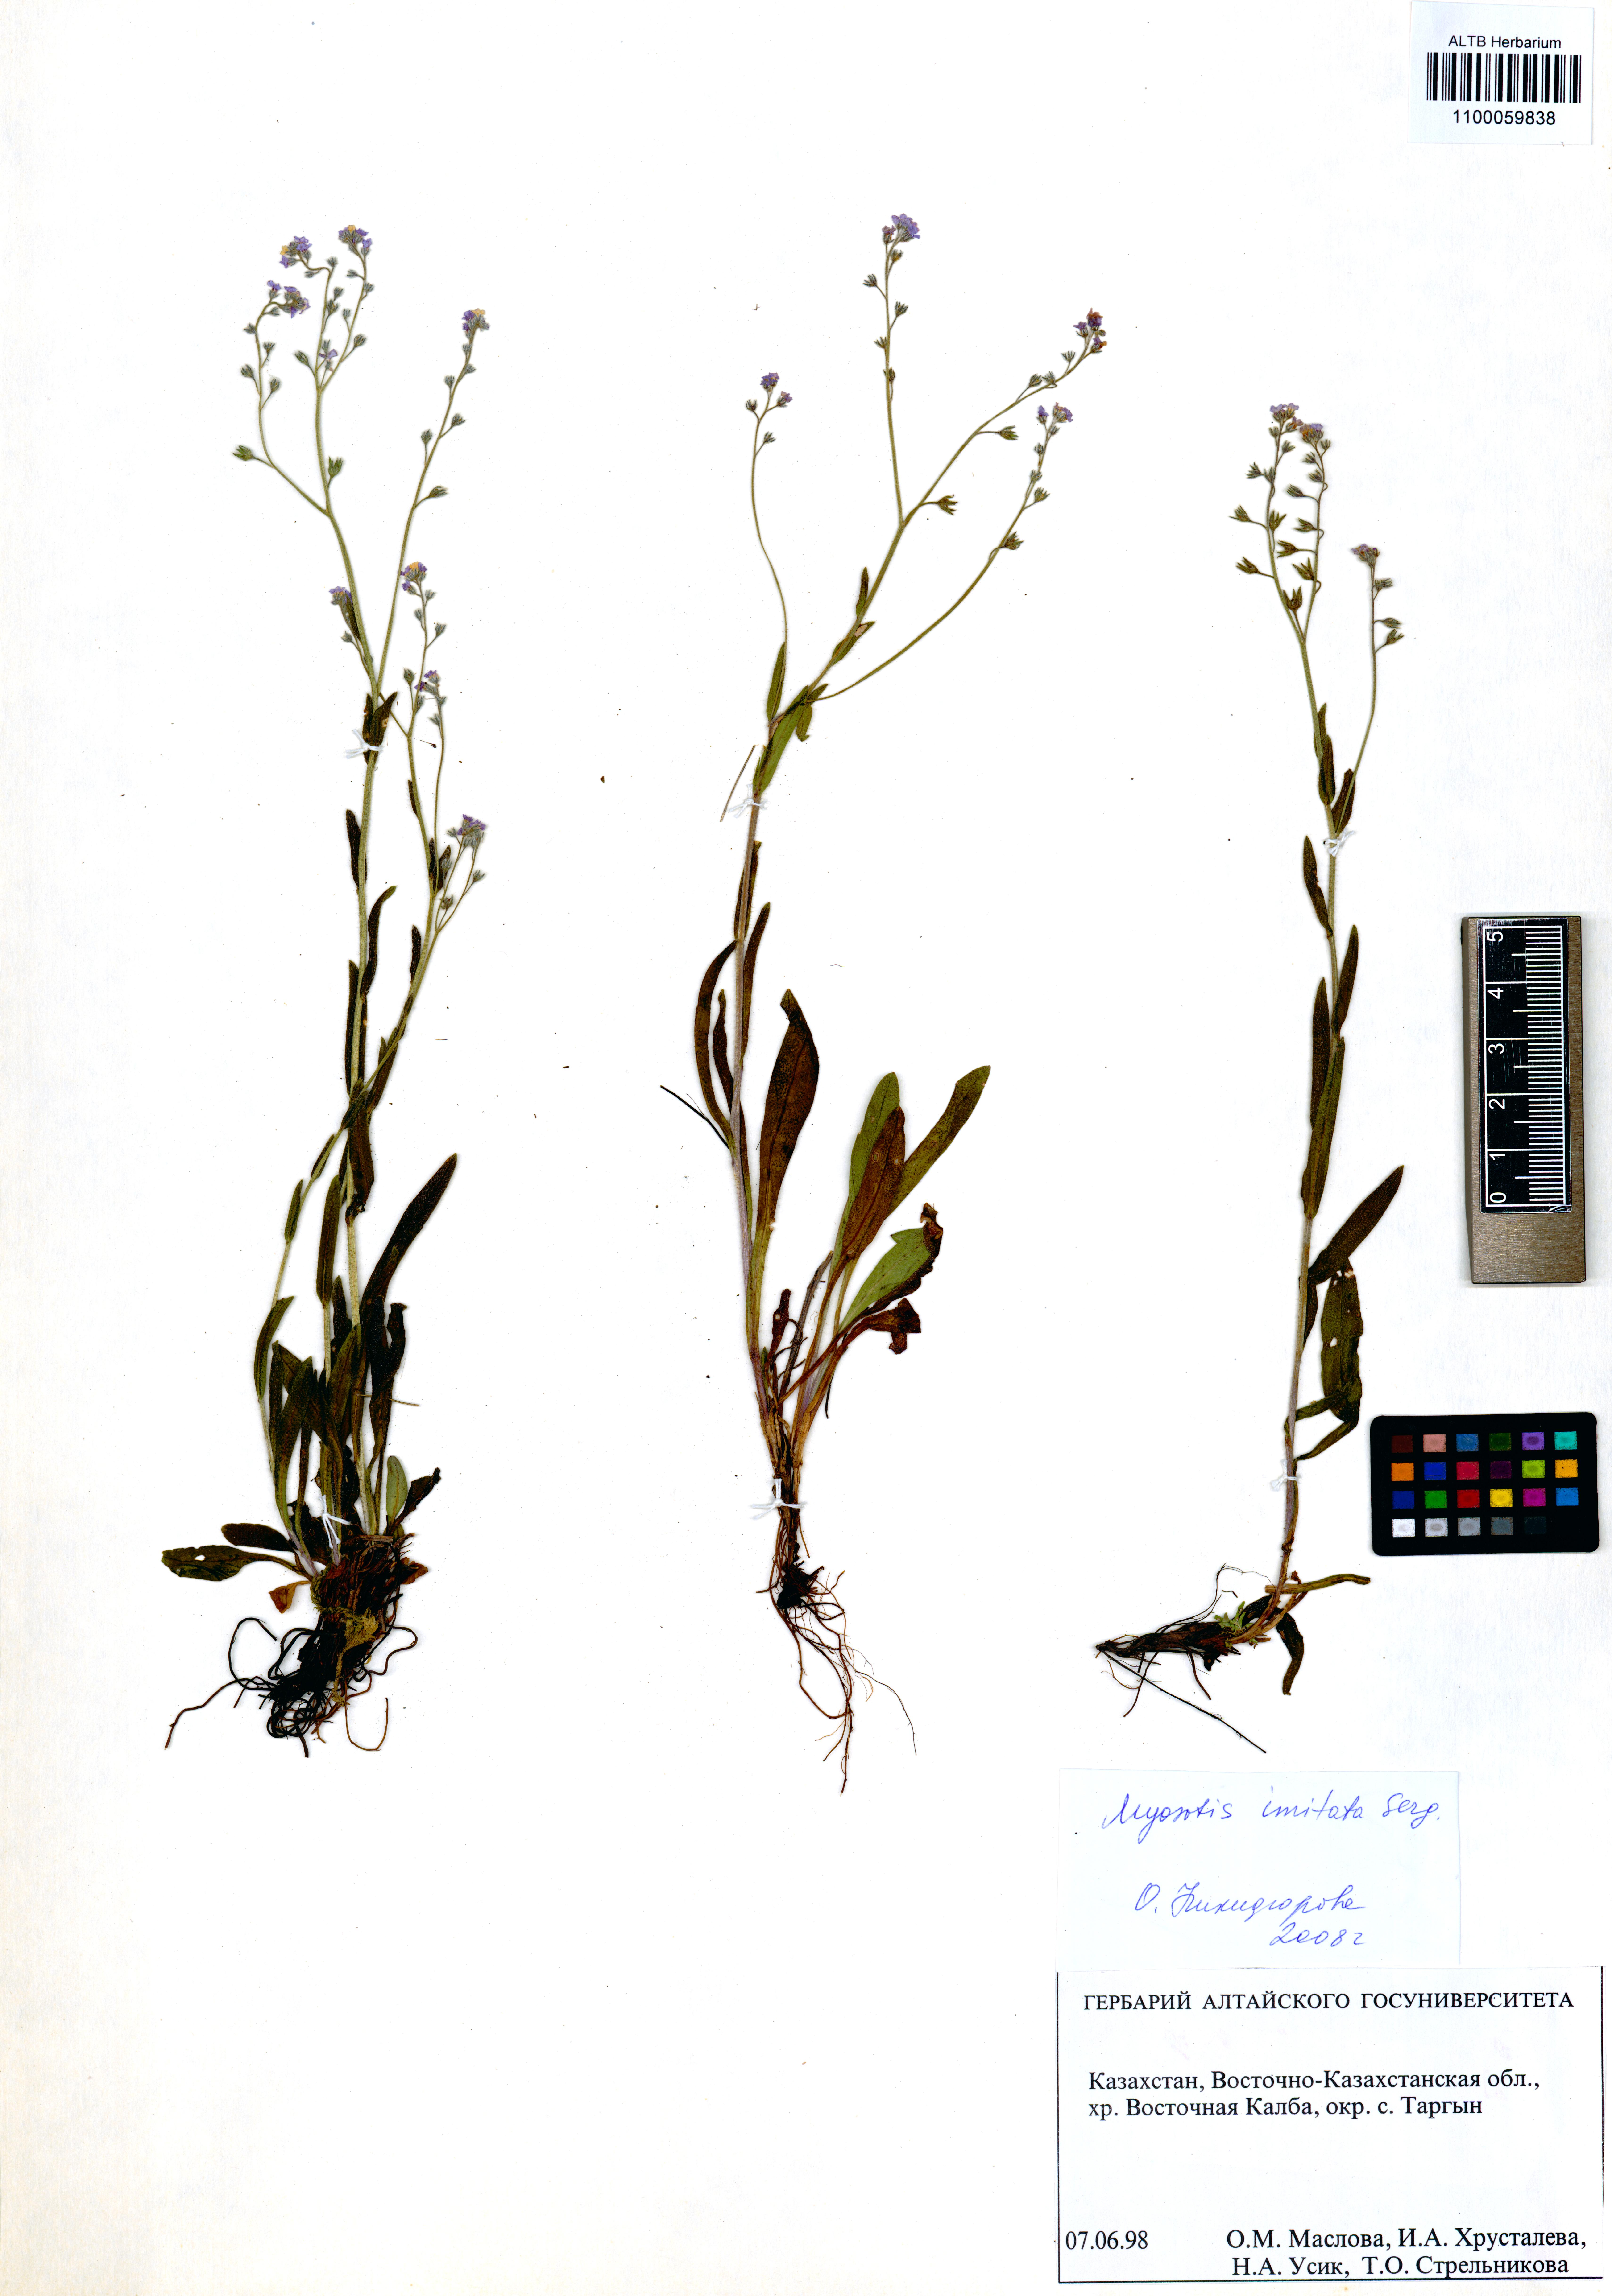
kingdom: Plantae
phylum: Tracheophyta
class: Magnoliopsida
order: Boraginales
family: Boraginaceae
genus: Myosotis
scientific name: Myosotis imitata
